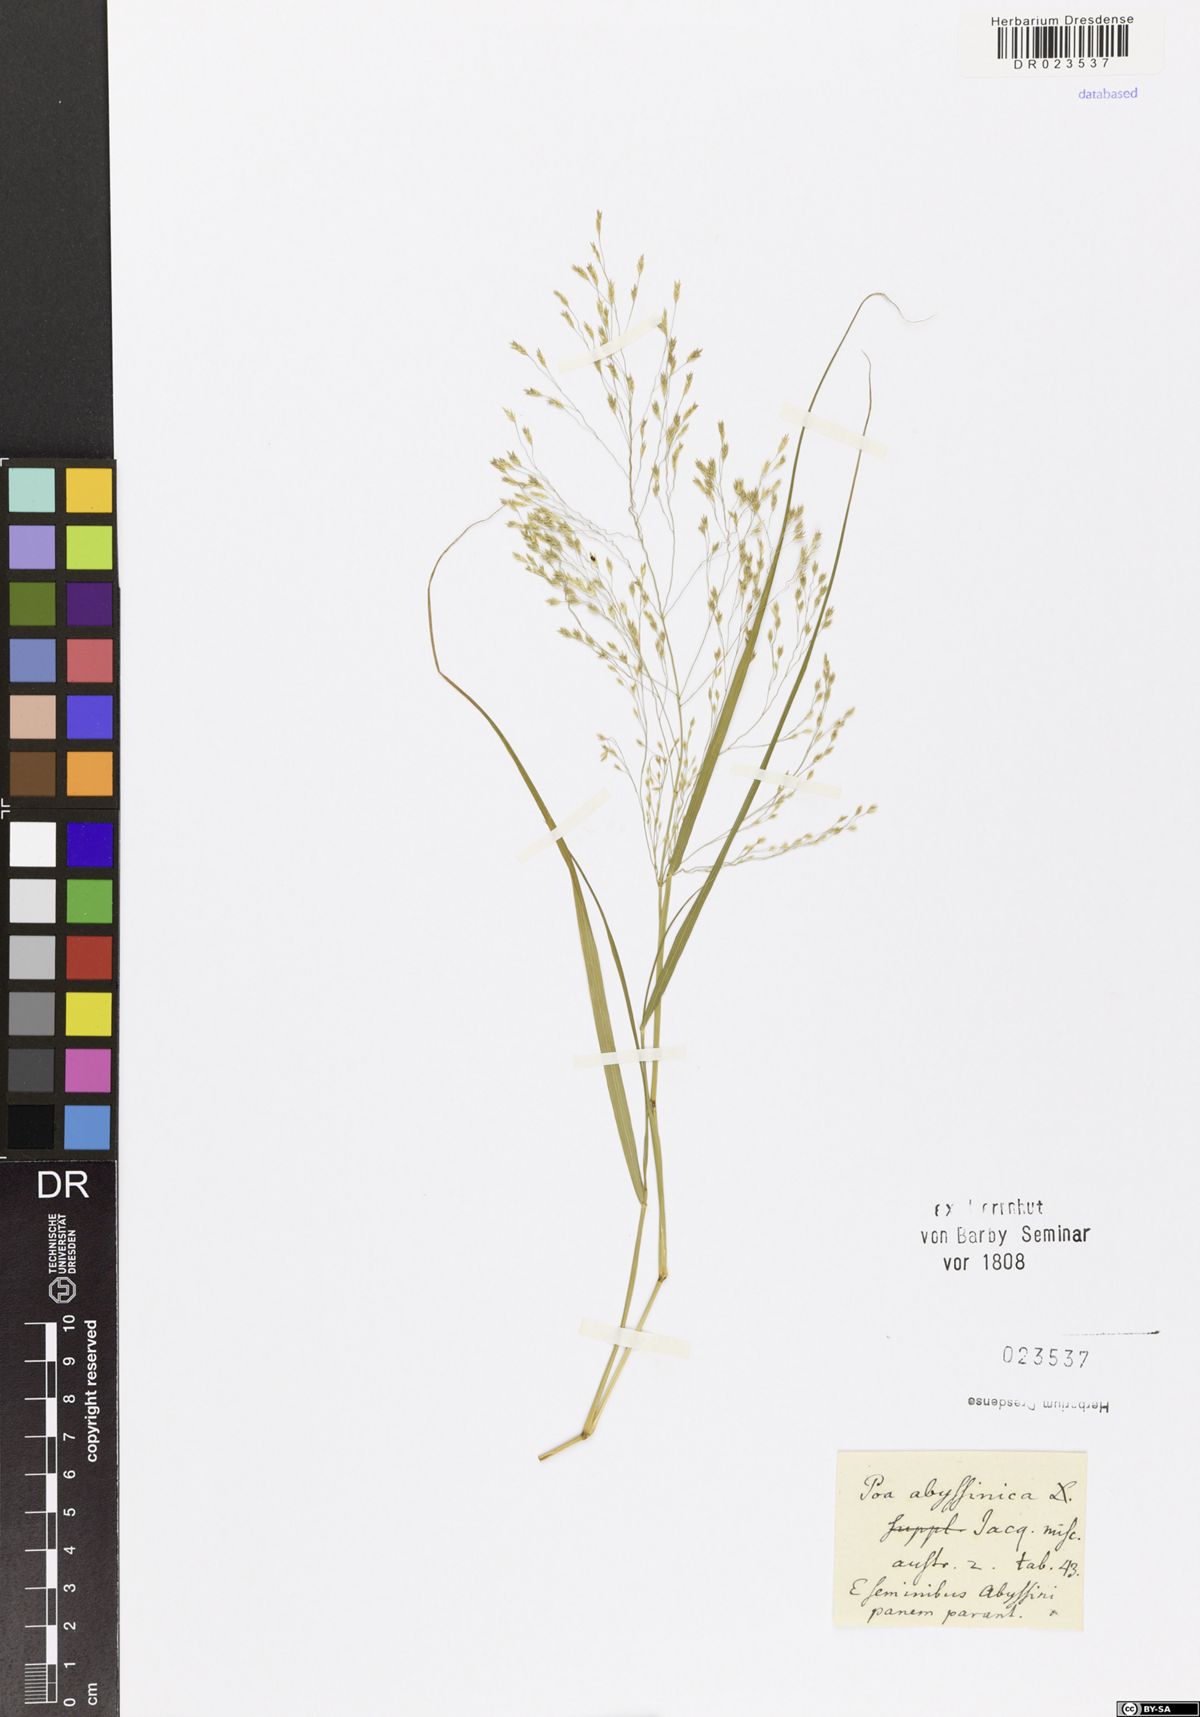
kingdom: Plantae
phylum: Tracheophyta
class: Liliopsida
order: Poales
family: Poaceae
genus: Eragrostis
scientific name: Eragrostis tef
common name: Teff
